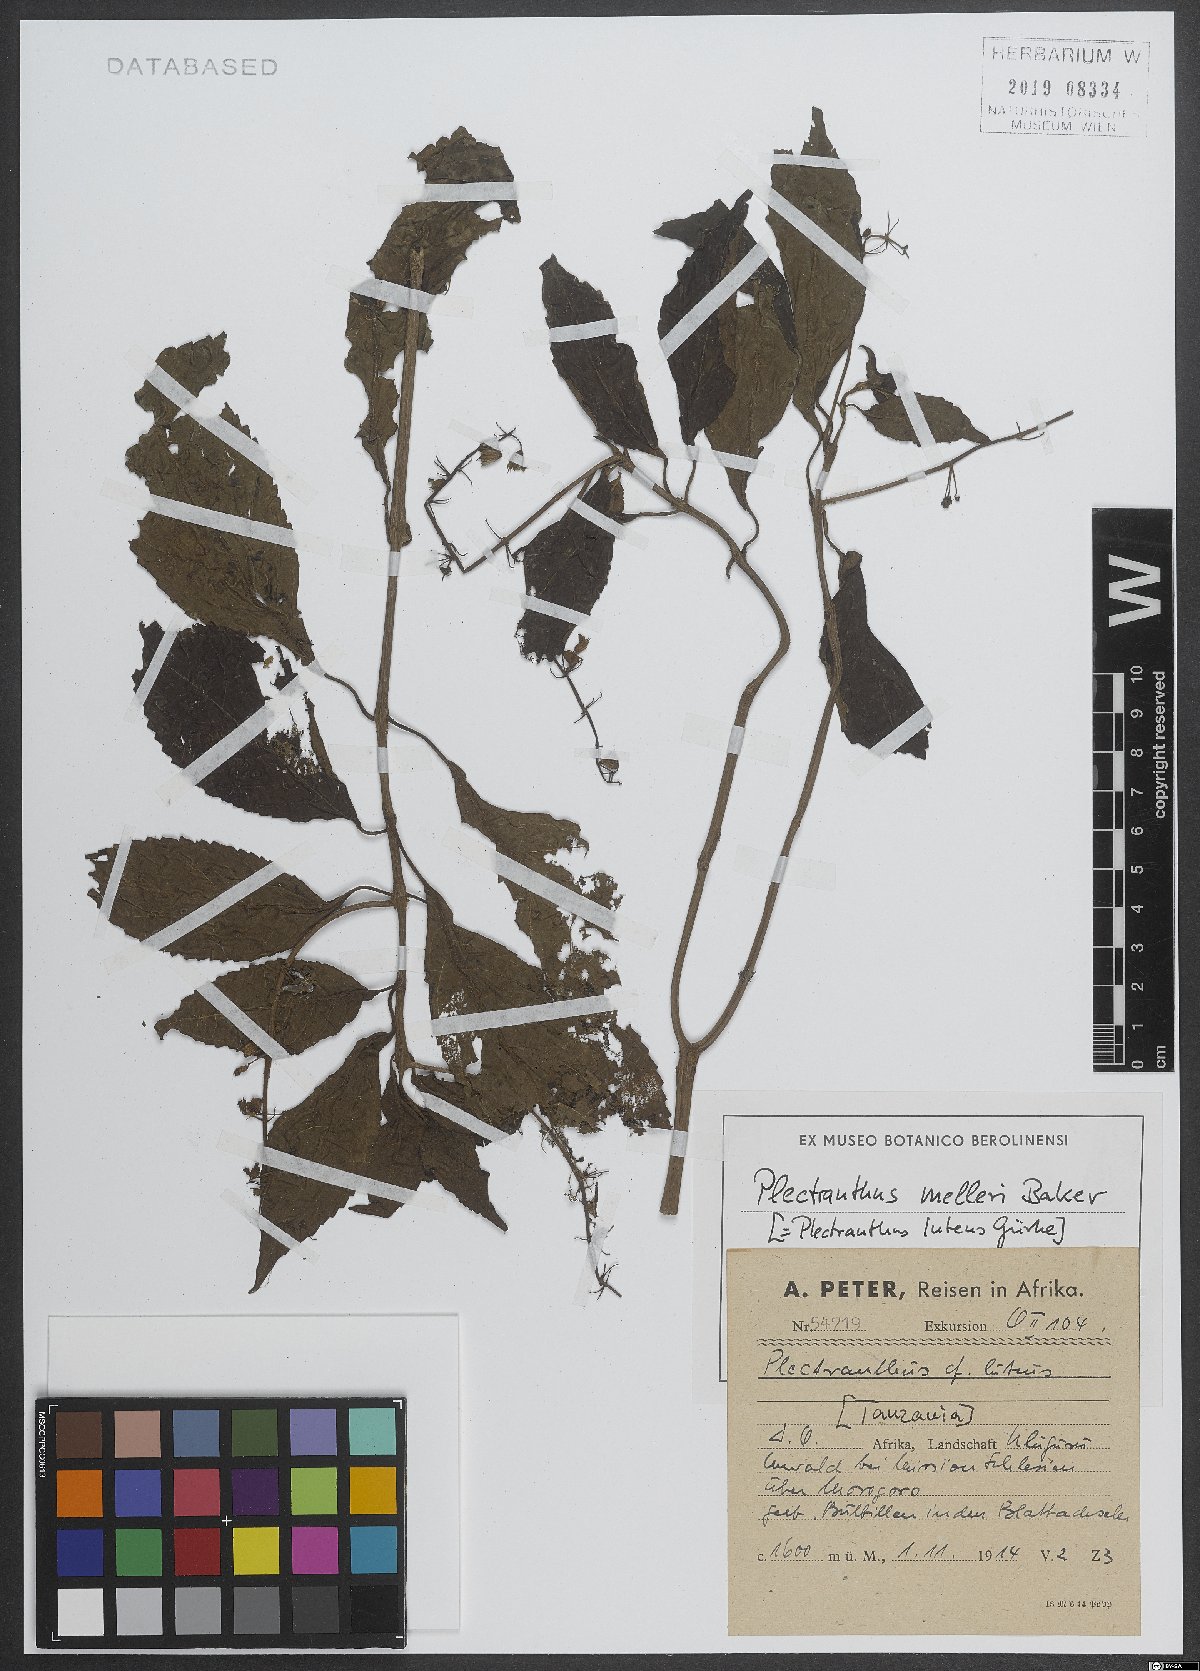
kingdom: Plantae
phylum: Tracheophyta
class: Magnoliopsida
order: Lamiales
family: Lamiaceae
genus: Coleus
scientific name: Coleus melleri
